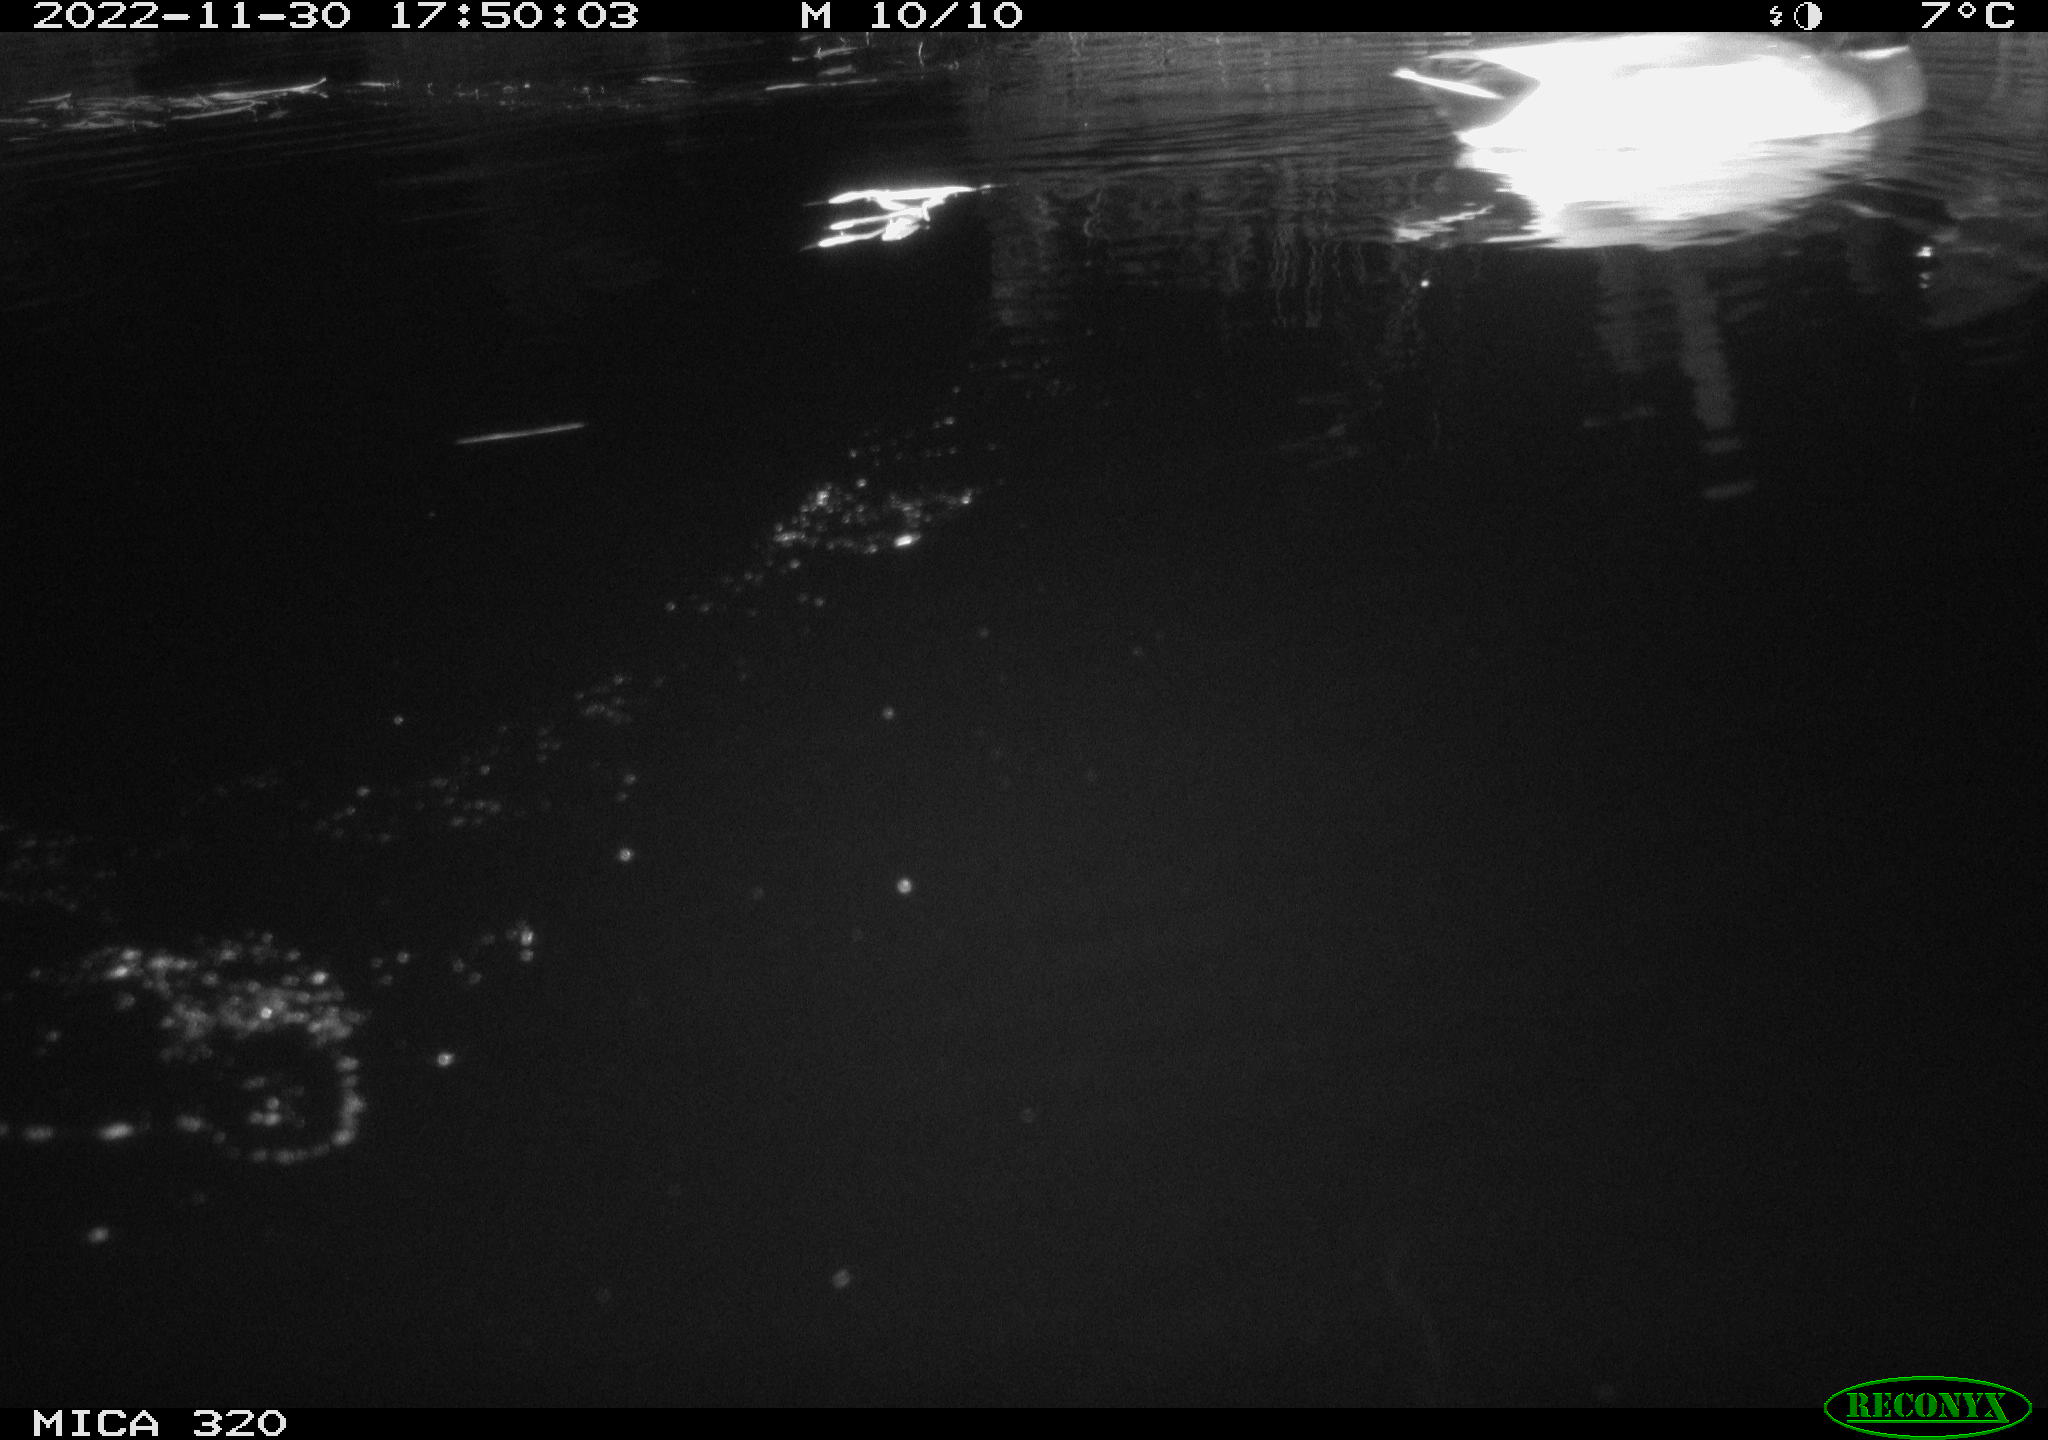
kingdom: Animalia
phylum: Chordata
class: Aves
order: Anseriformes
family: Anatidae
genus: Anas
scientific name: Anas
